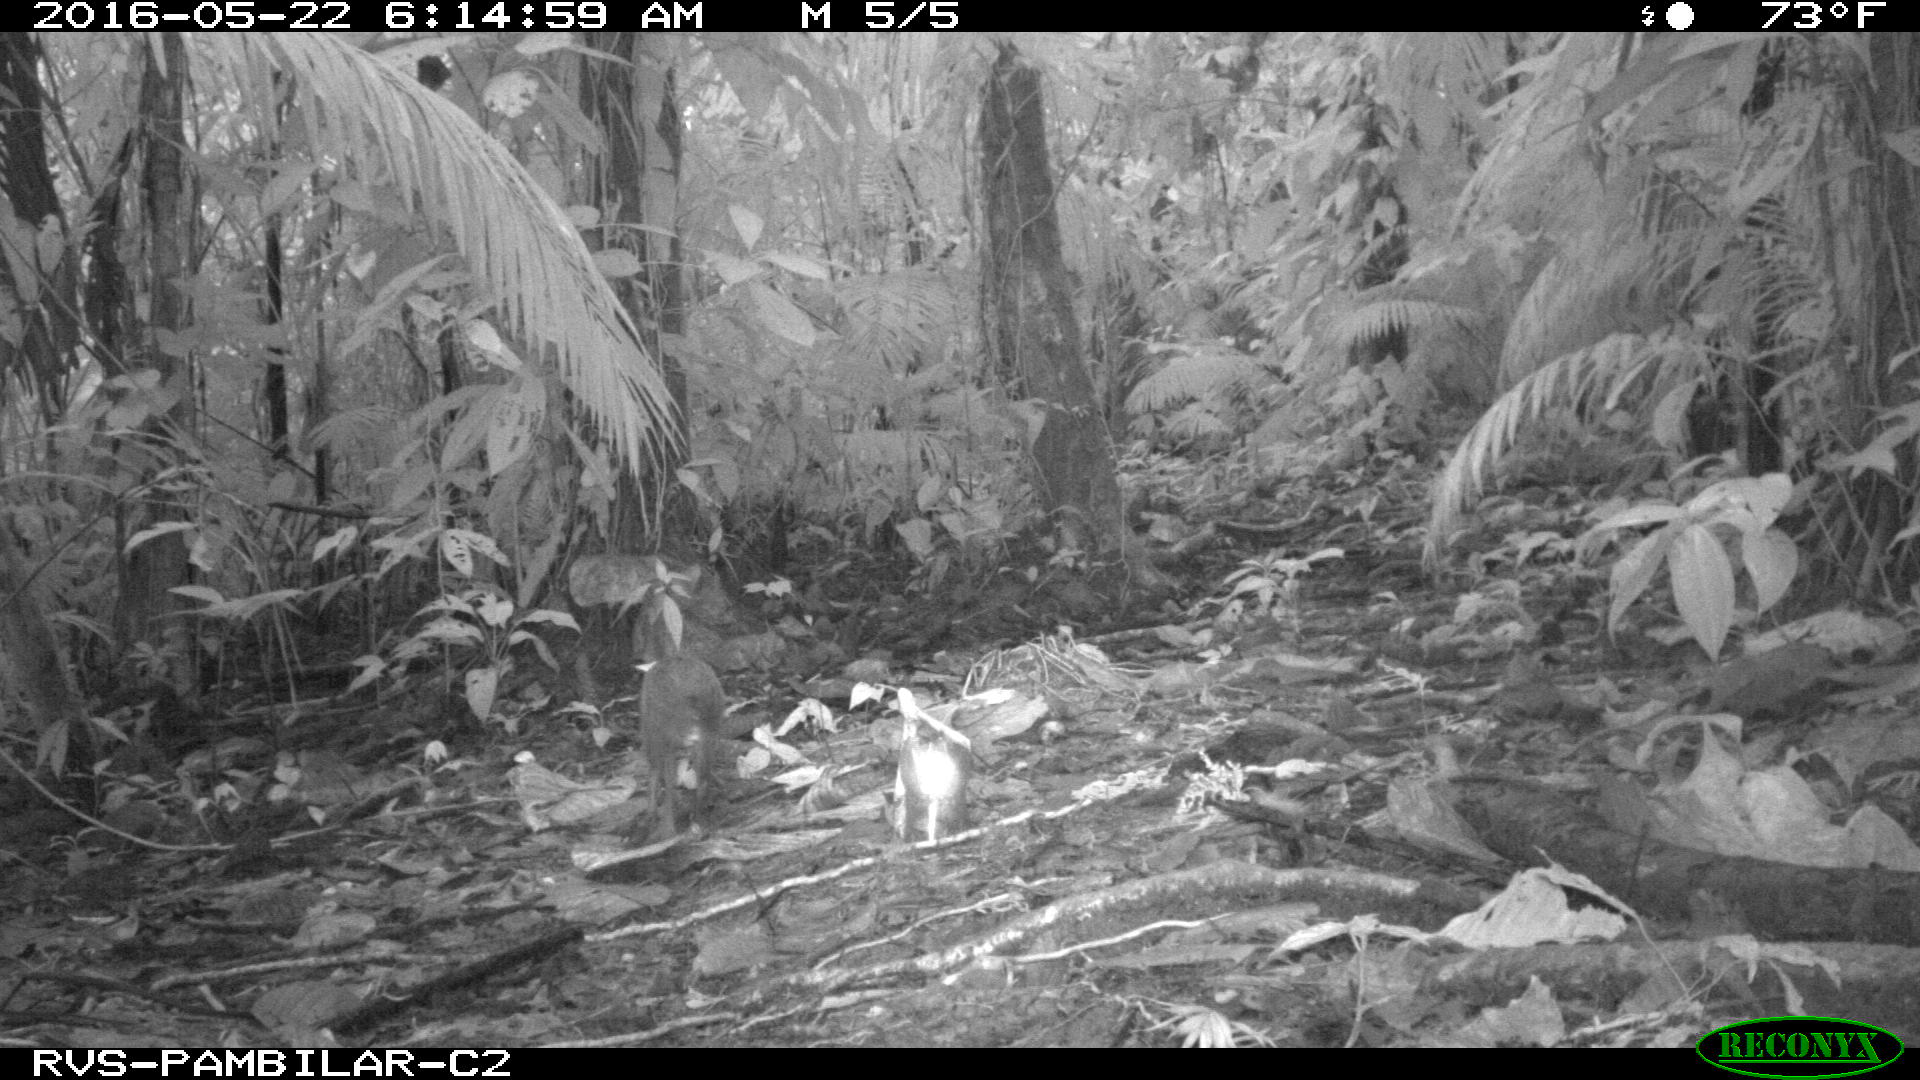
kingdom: Animalia
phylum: Chordata
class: Mammalia
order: Rodentia
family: Dasyproctidae
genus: Dasyprocta
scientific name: Dasyprocta punctata
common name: Central american agouti
